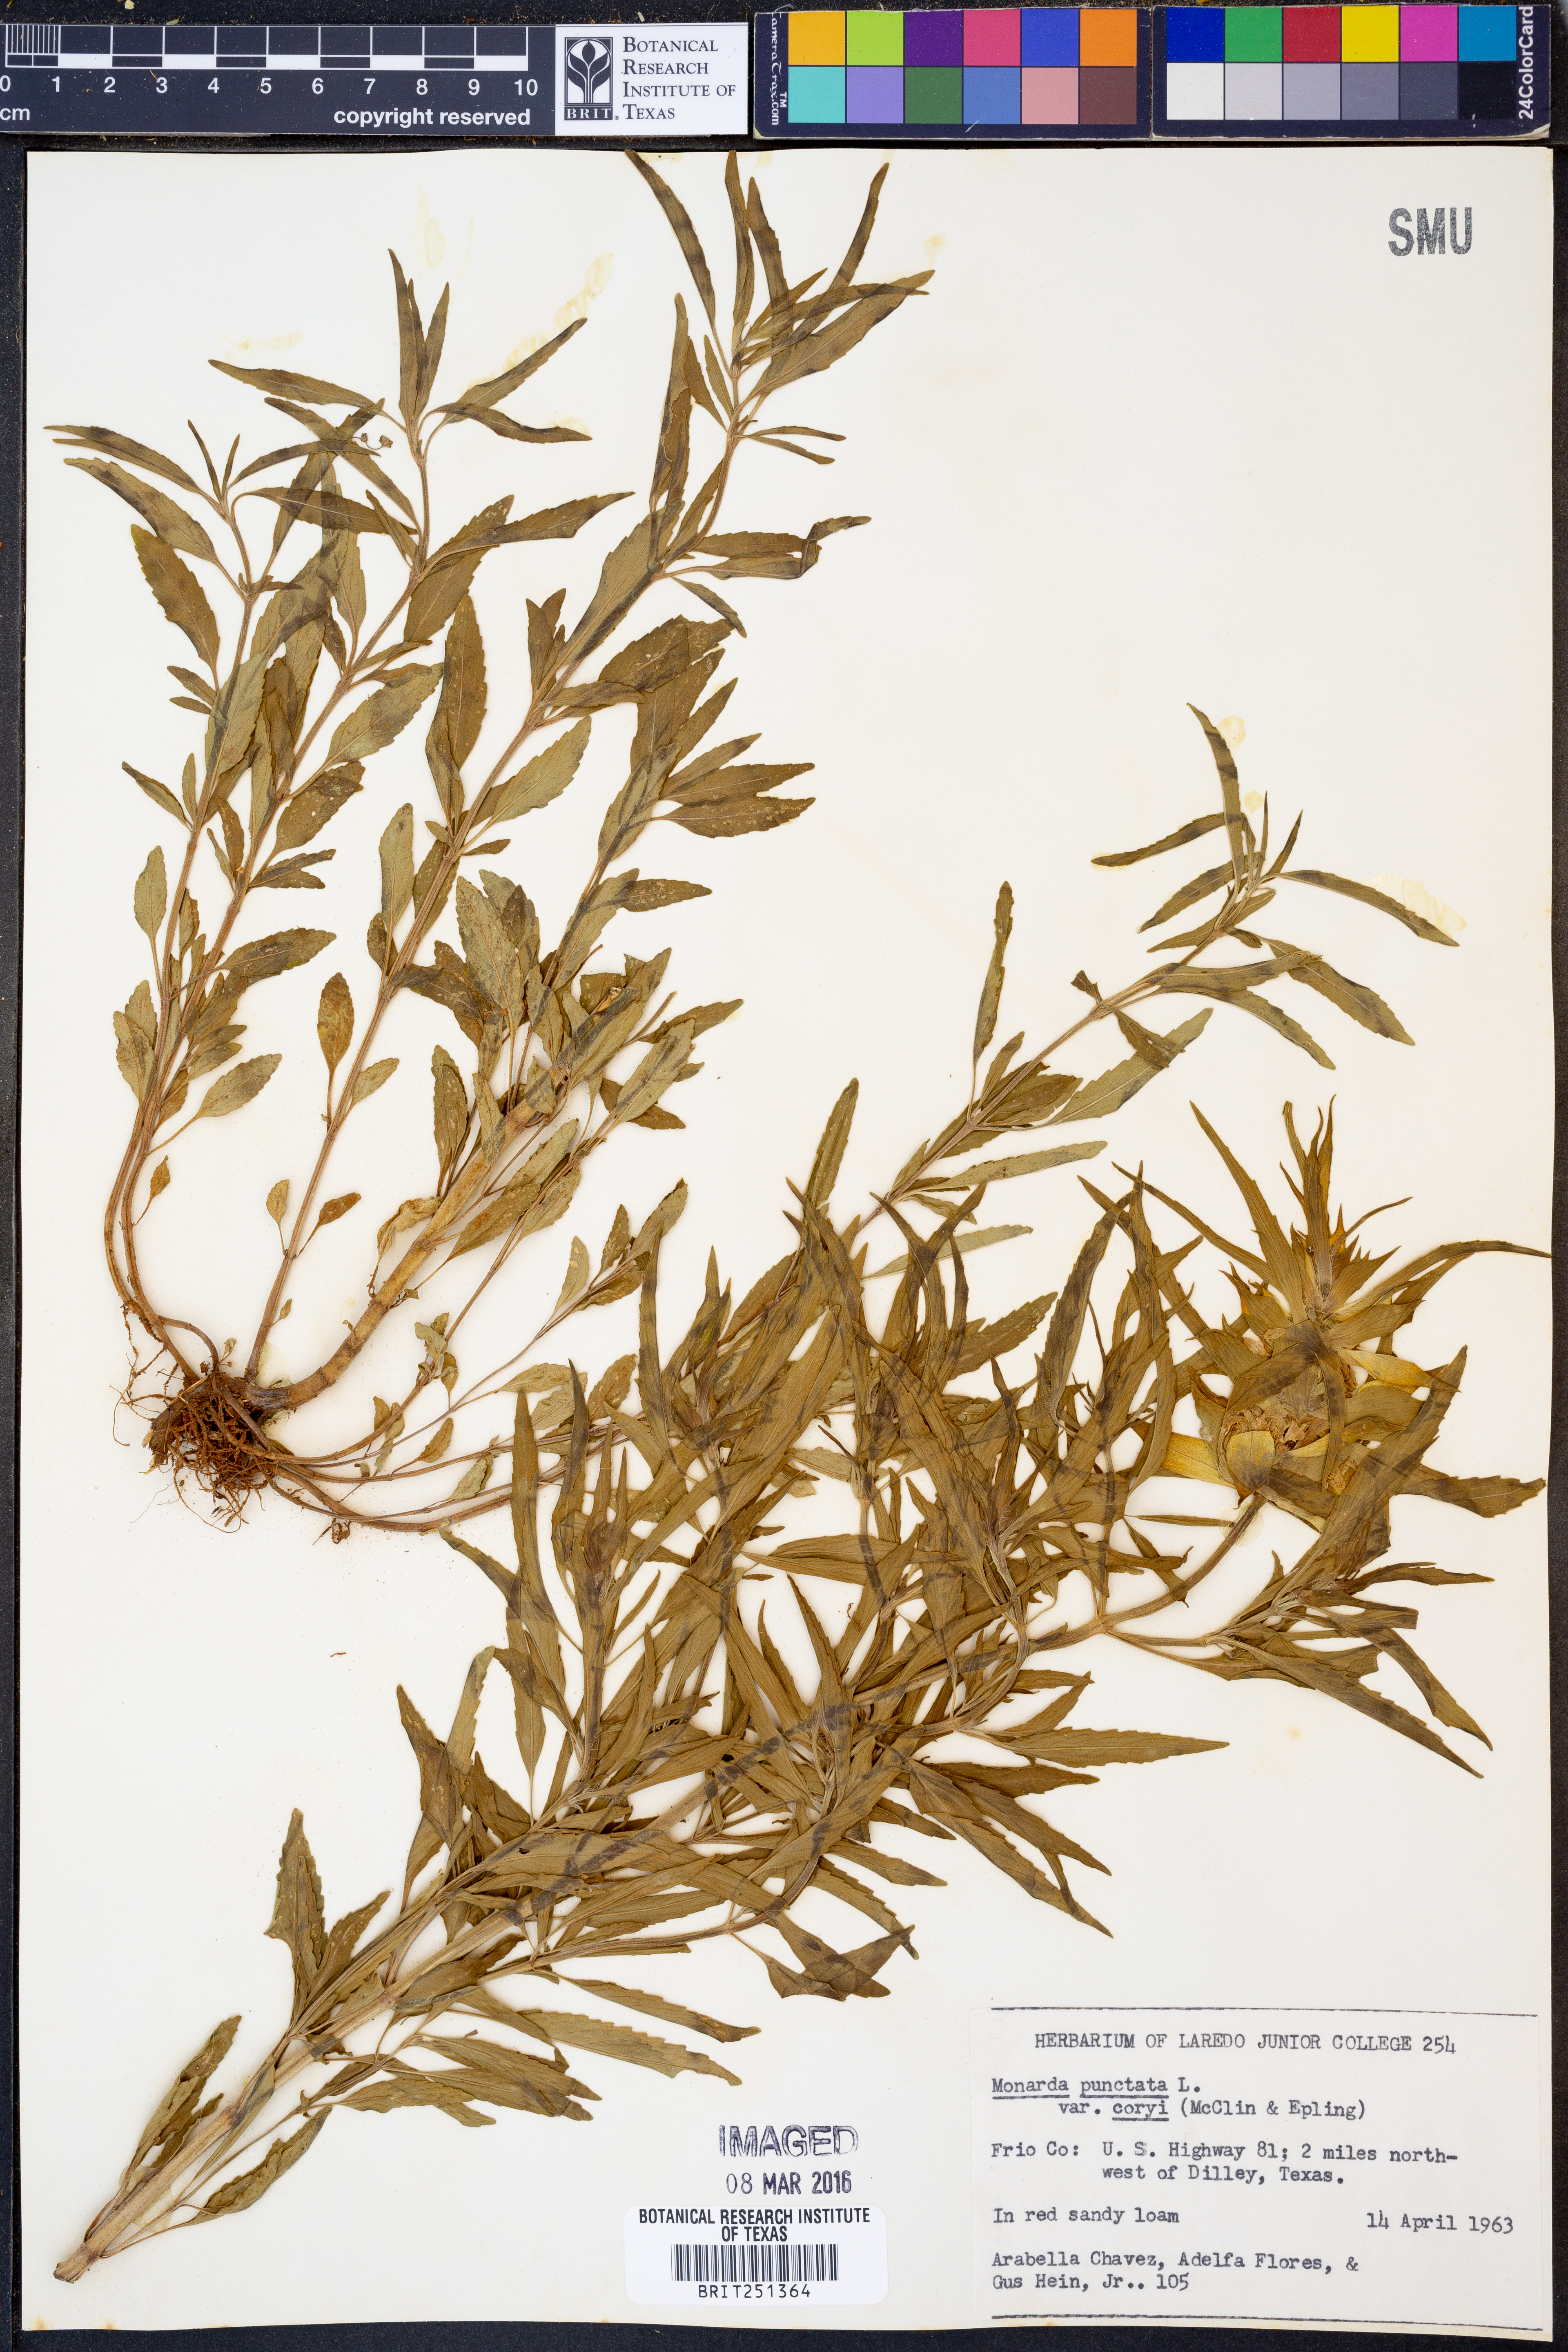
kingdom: Plantae
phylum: Tracheophyta
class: Magnoliopsida
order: Lamiales
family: Lamiaceae
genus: Monarda
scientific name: Monarda punctata
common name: Dotted monarda
